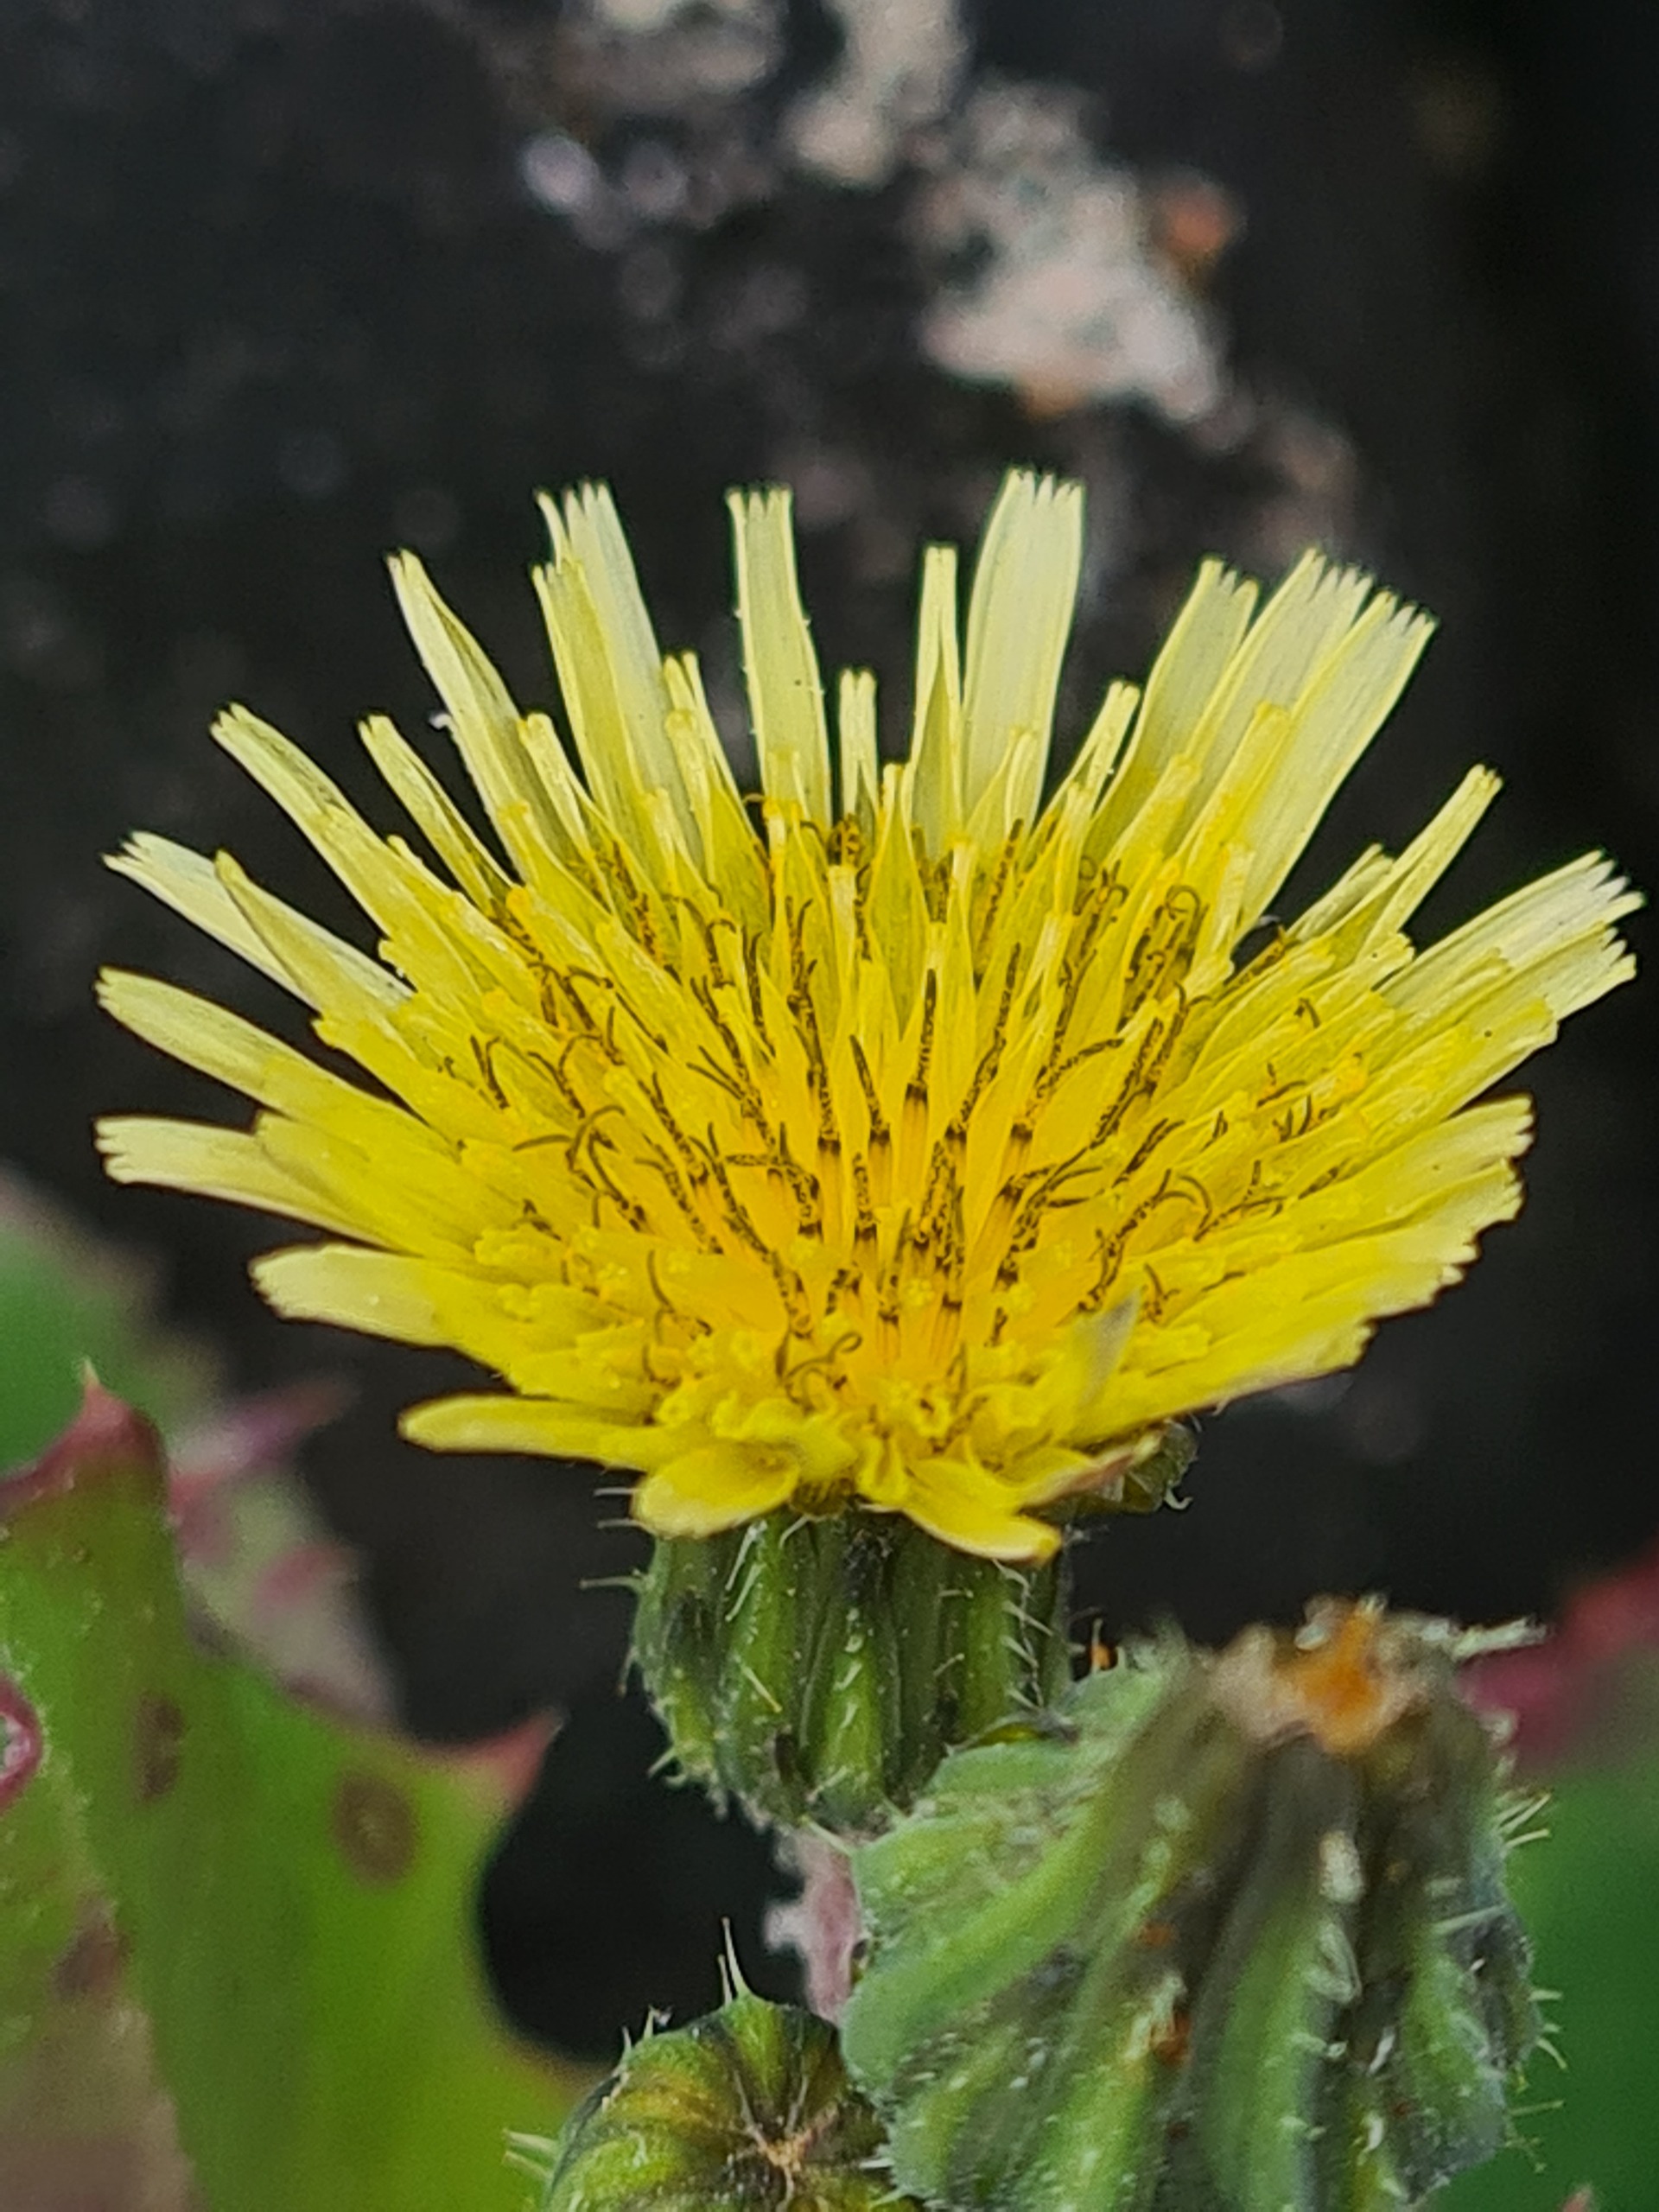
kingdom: Plantae
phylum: Tracheophyta
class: Magnoliopsida
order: Asterales
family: Asteraceae
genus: Sonchus
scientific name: Sonchus oleraceus
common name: Almindelig svinemælk
